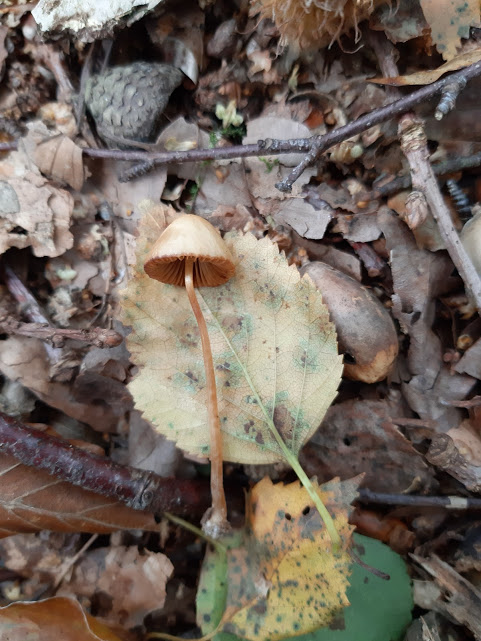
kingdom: Fungi
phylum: Basidiomycota
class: Agaricomycetes
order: Agaricales
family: Bolbitiaceae
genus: Conocybe
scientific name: Conocybe
